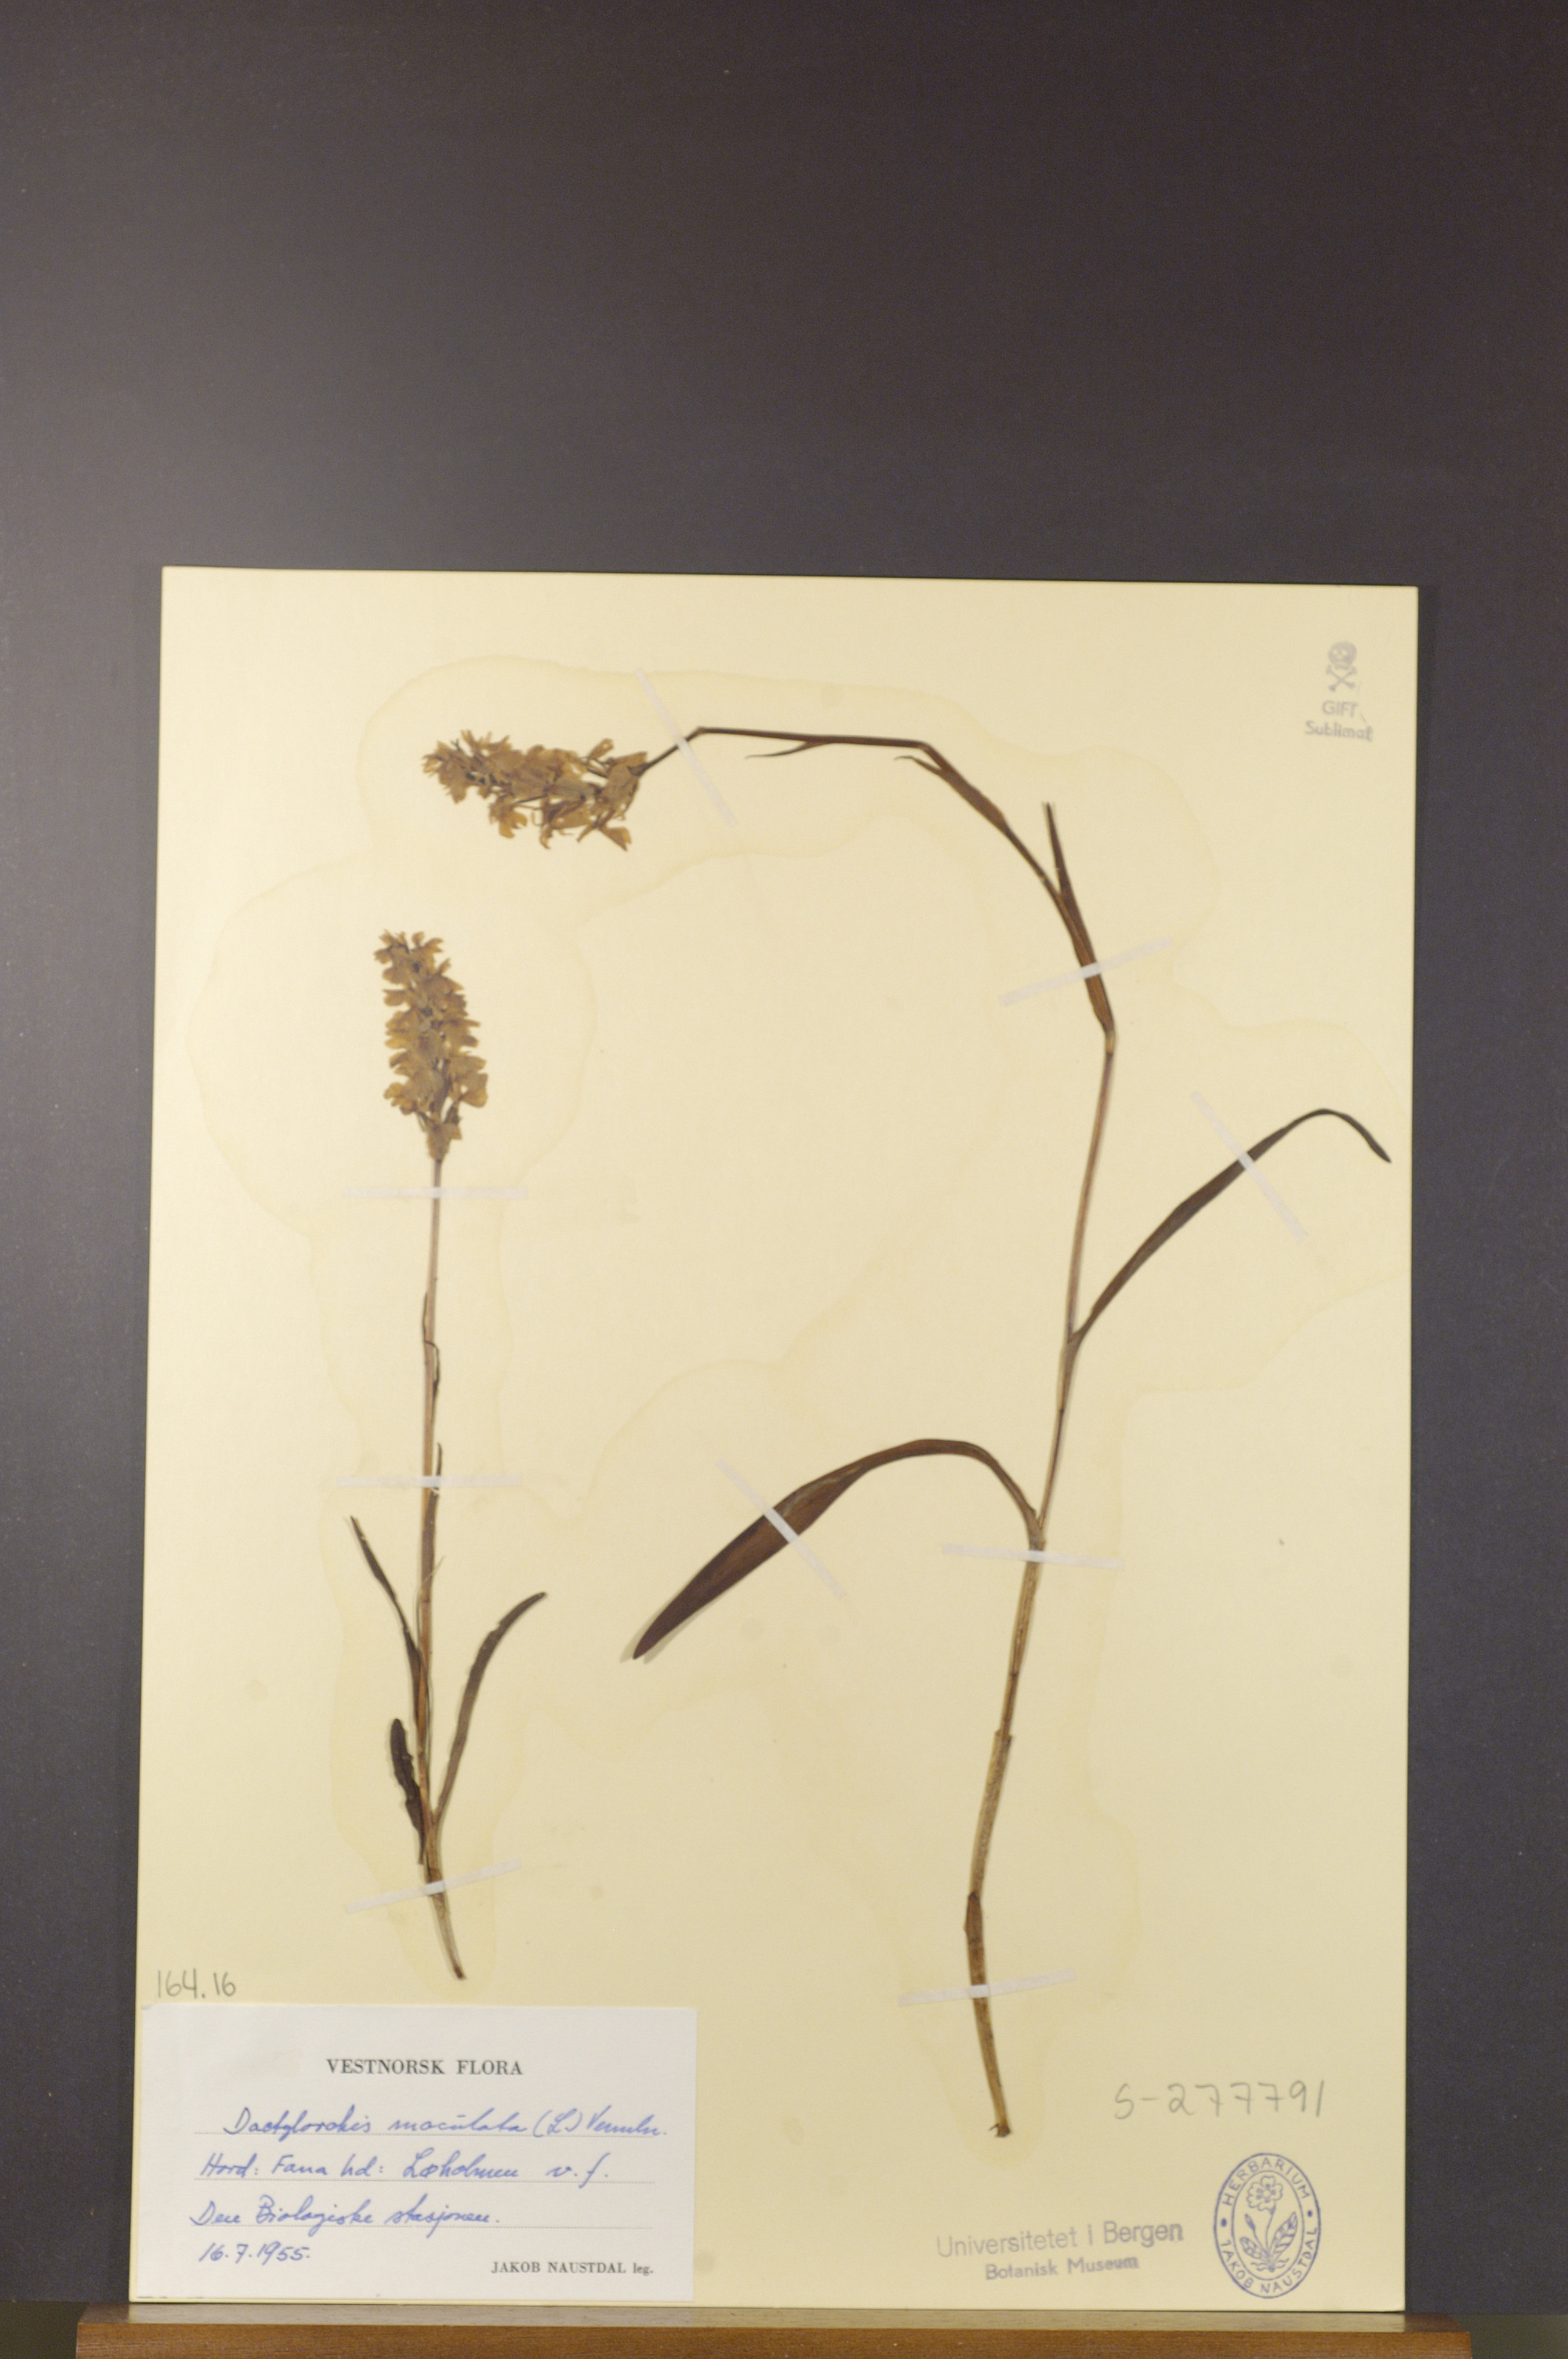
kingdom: Plantae
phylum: Tracheophyta
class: Liliopsida
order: Asparagales
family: Orchidaceae
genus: Dactylorhiza
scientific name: Dactylorhiza maculata
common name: Heath spotted-orchid
